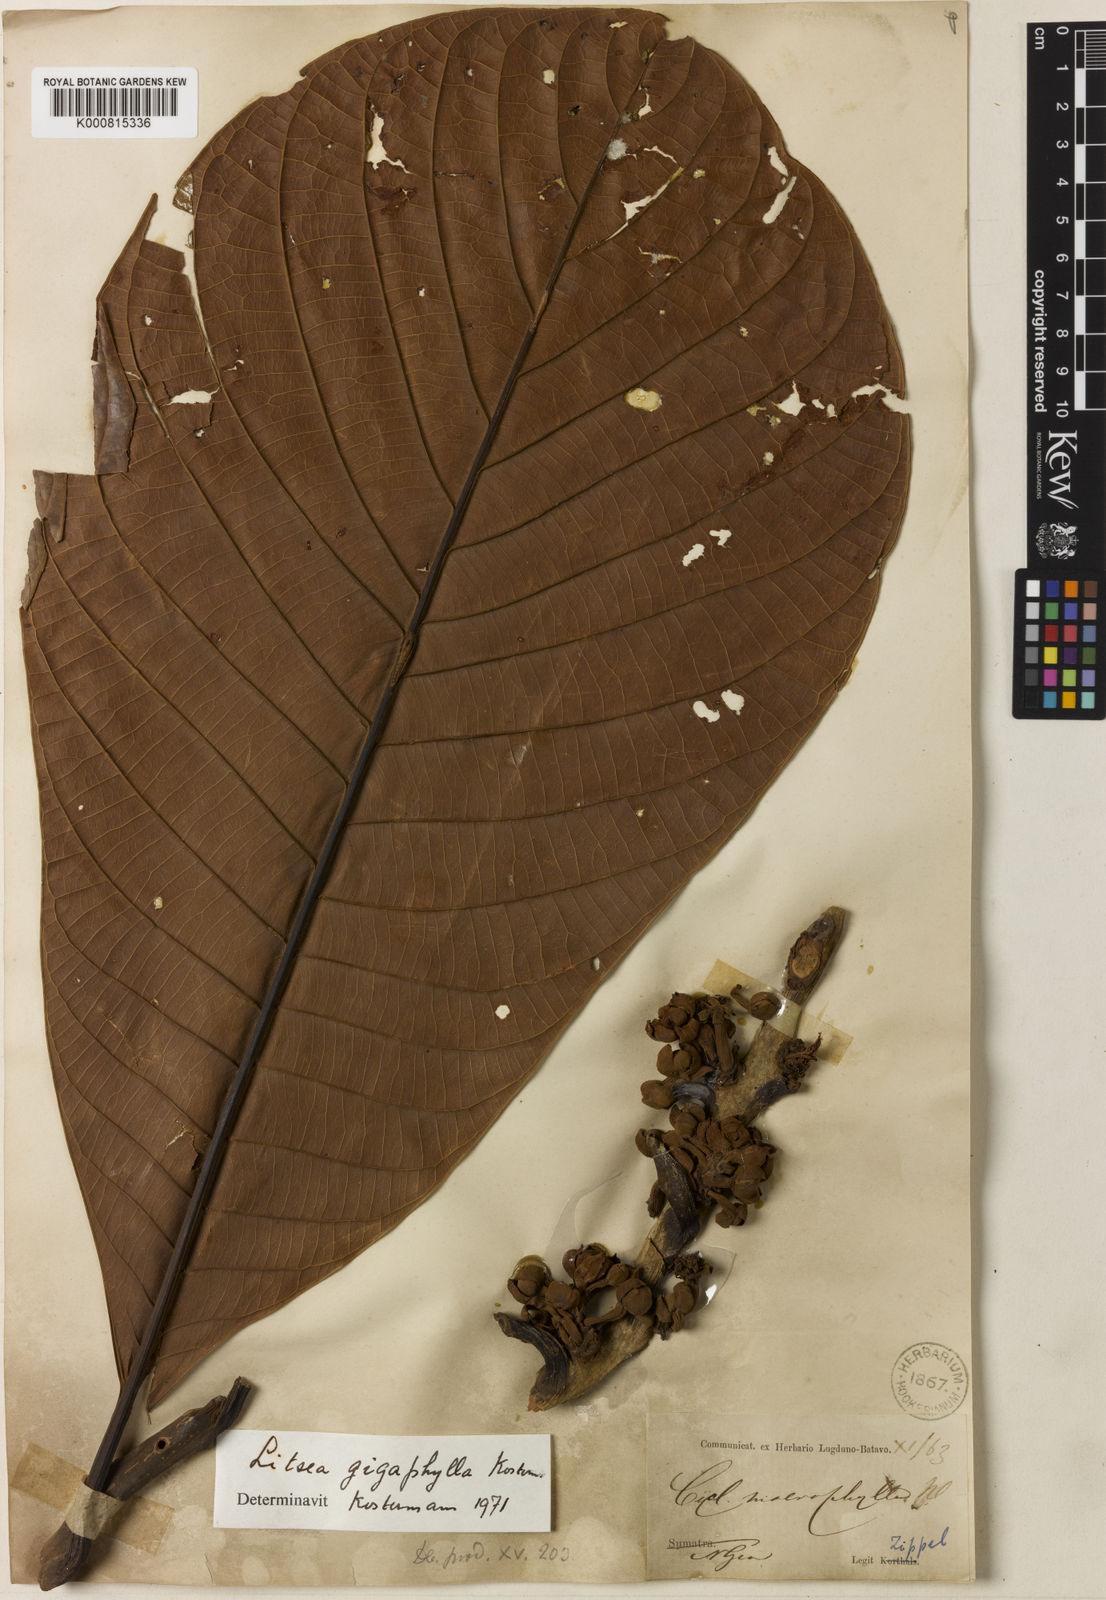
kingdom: Plantae
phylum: Tracheophyta
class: Magnoliopsida
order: Laurales
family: Lauraceae
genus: Litsea
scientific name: Litsea
